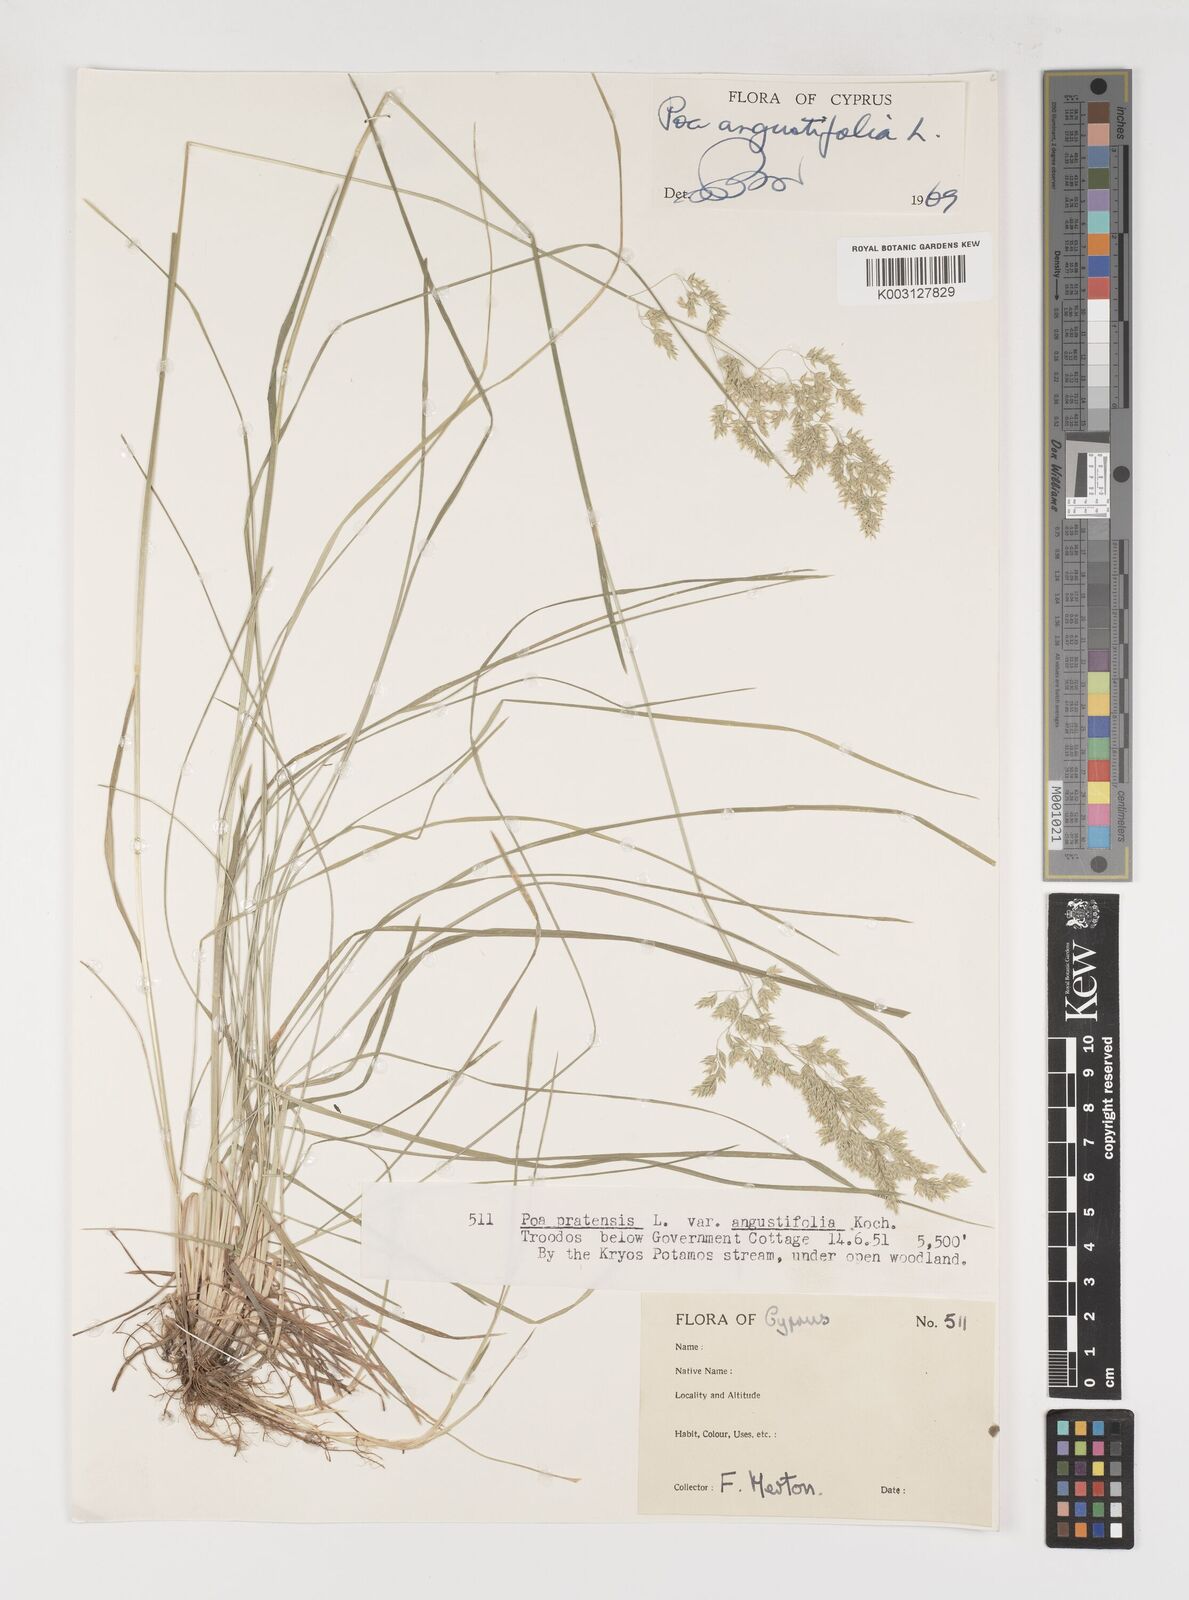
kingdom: Plantae
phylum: Tracheophyta
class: Liliopsida
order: Poales
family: Poaceae
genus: Poa
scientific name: Poa angustifolia
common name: Narrow-leaved meadow-grass
